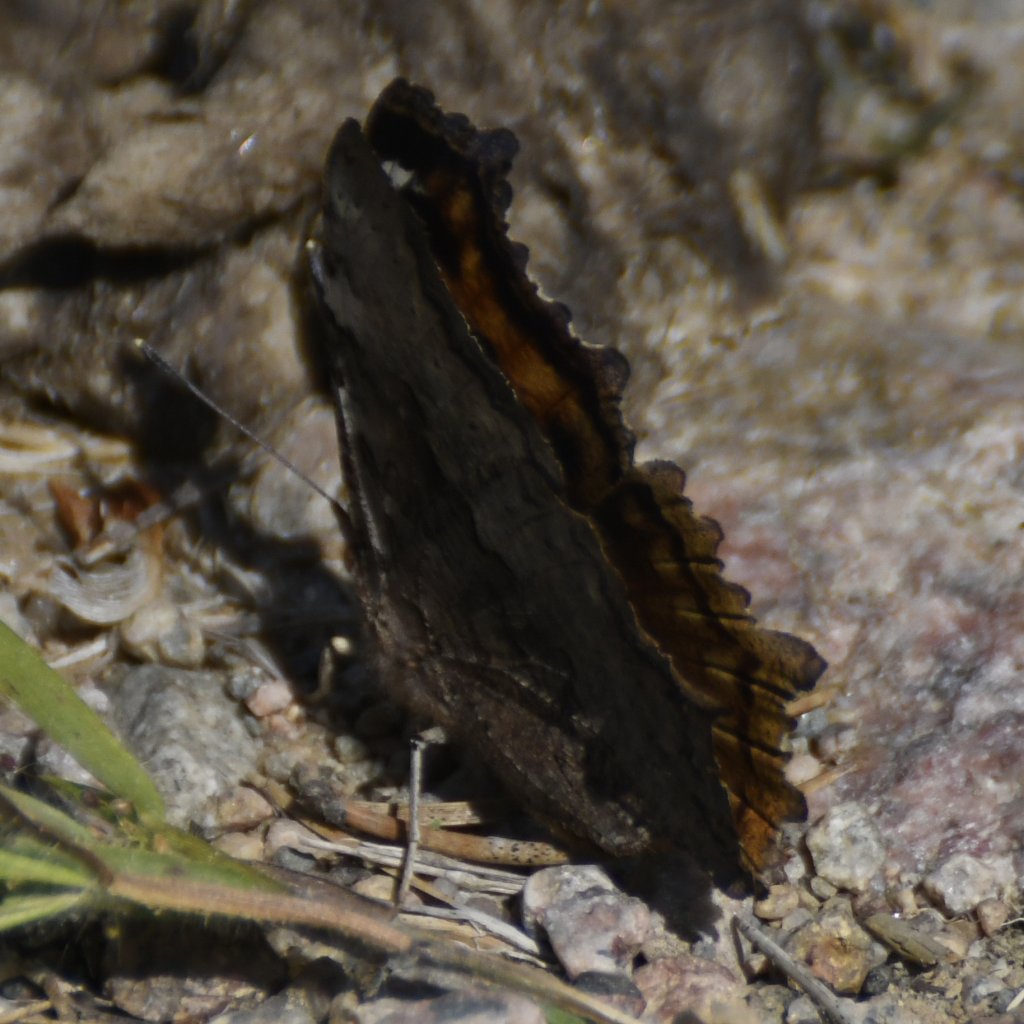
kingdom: Animalia
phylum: Arthropoda
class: Insecta
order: Lepidoptera
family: Nymphalidae
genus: Polygonia
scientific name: Polygonia vaualbum
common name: Compton Tortoiseshell
